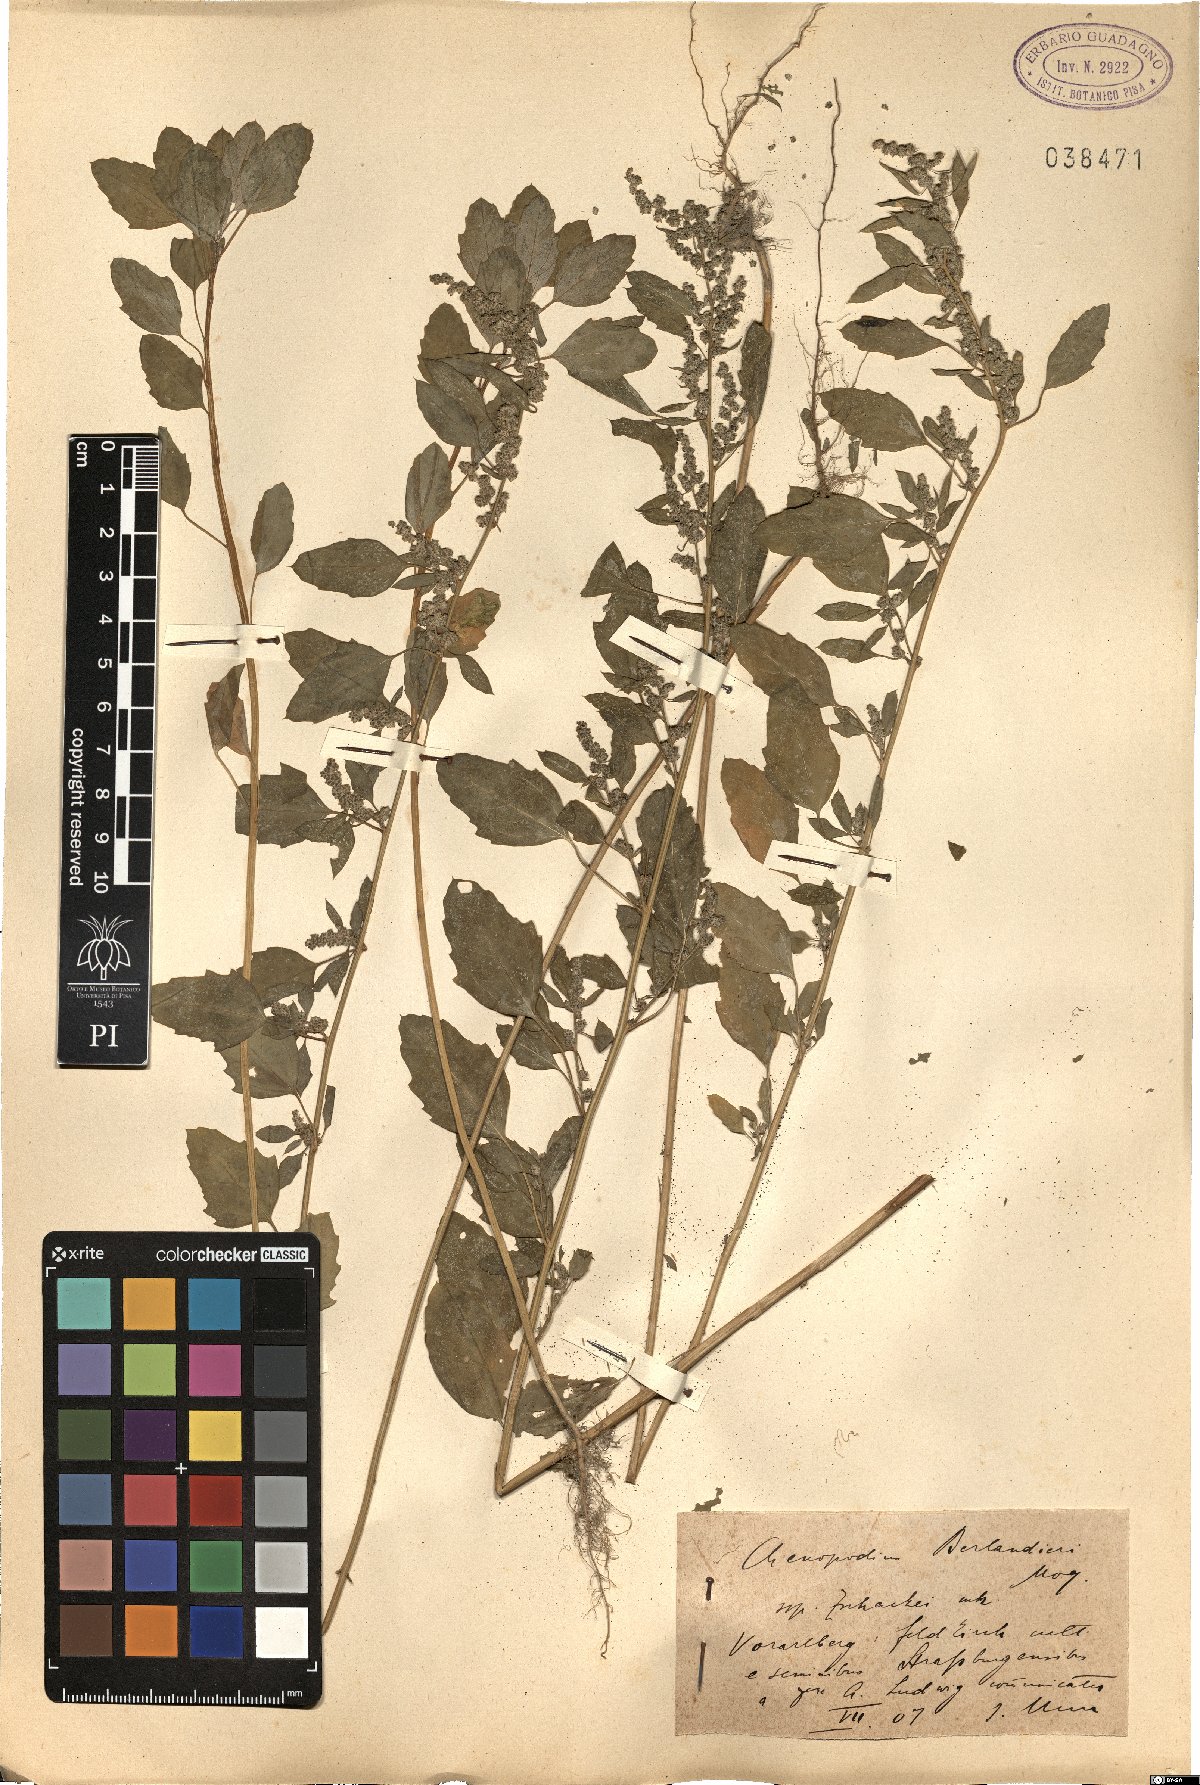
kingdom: Plantae
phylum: Tracheophyta
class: Magnoliopsida
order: Caryophyllales
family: Amaranthaceae
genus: Chenopodium
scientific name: Chenopodium berlandieri
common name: Pit-seed goosefoot
